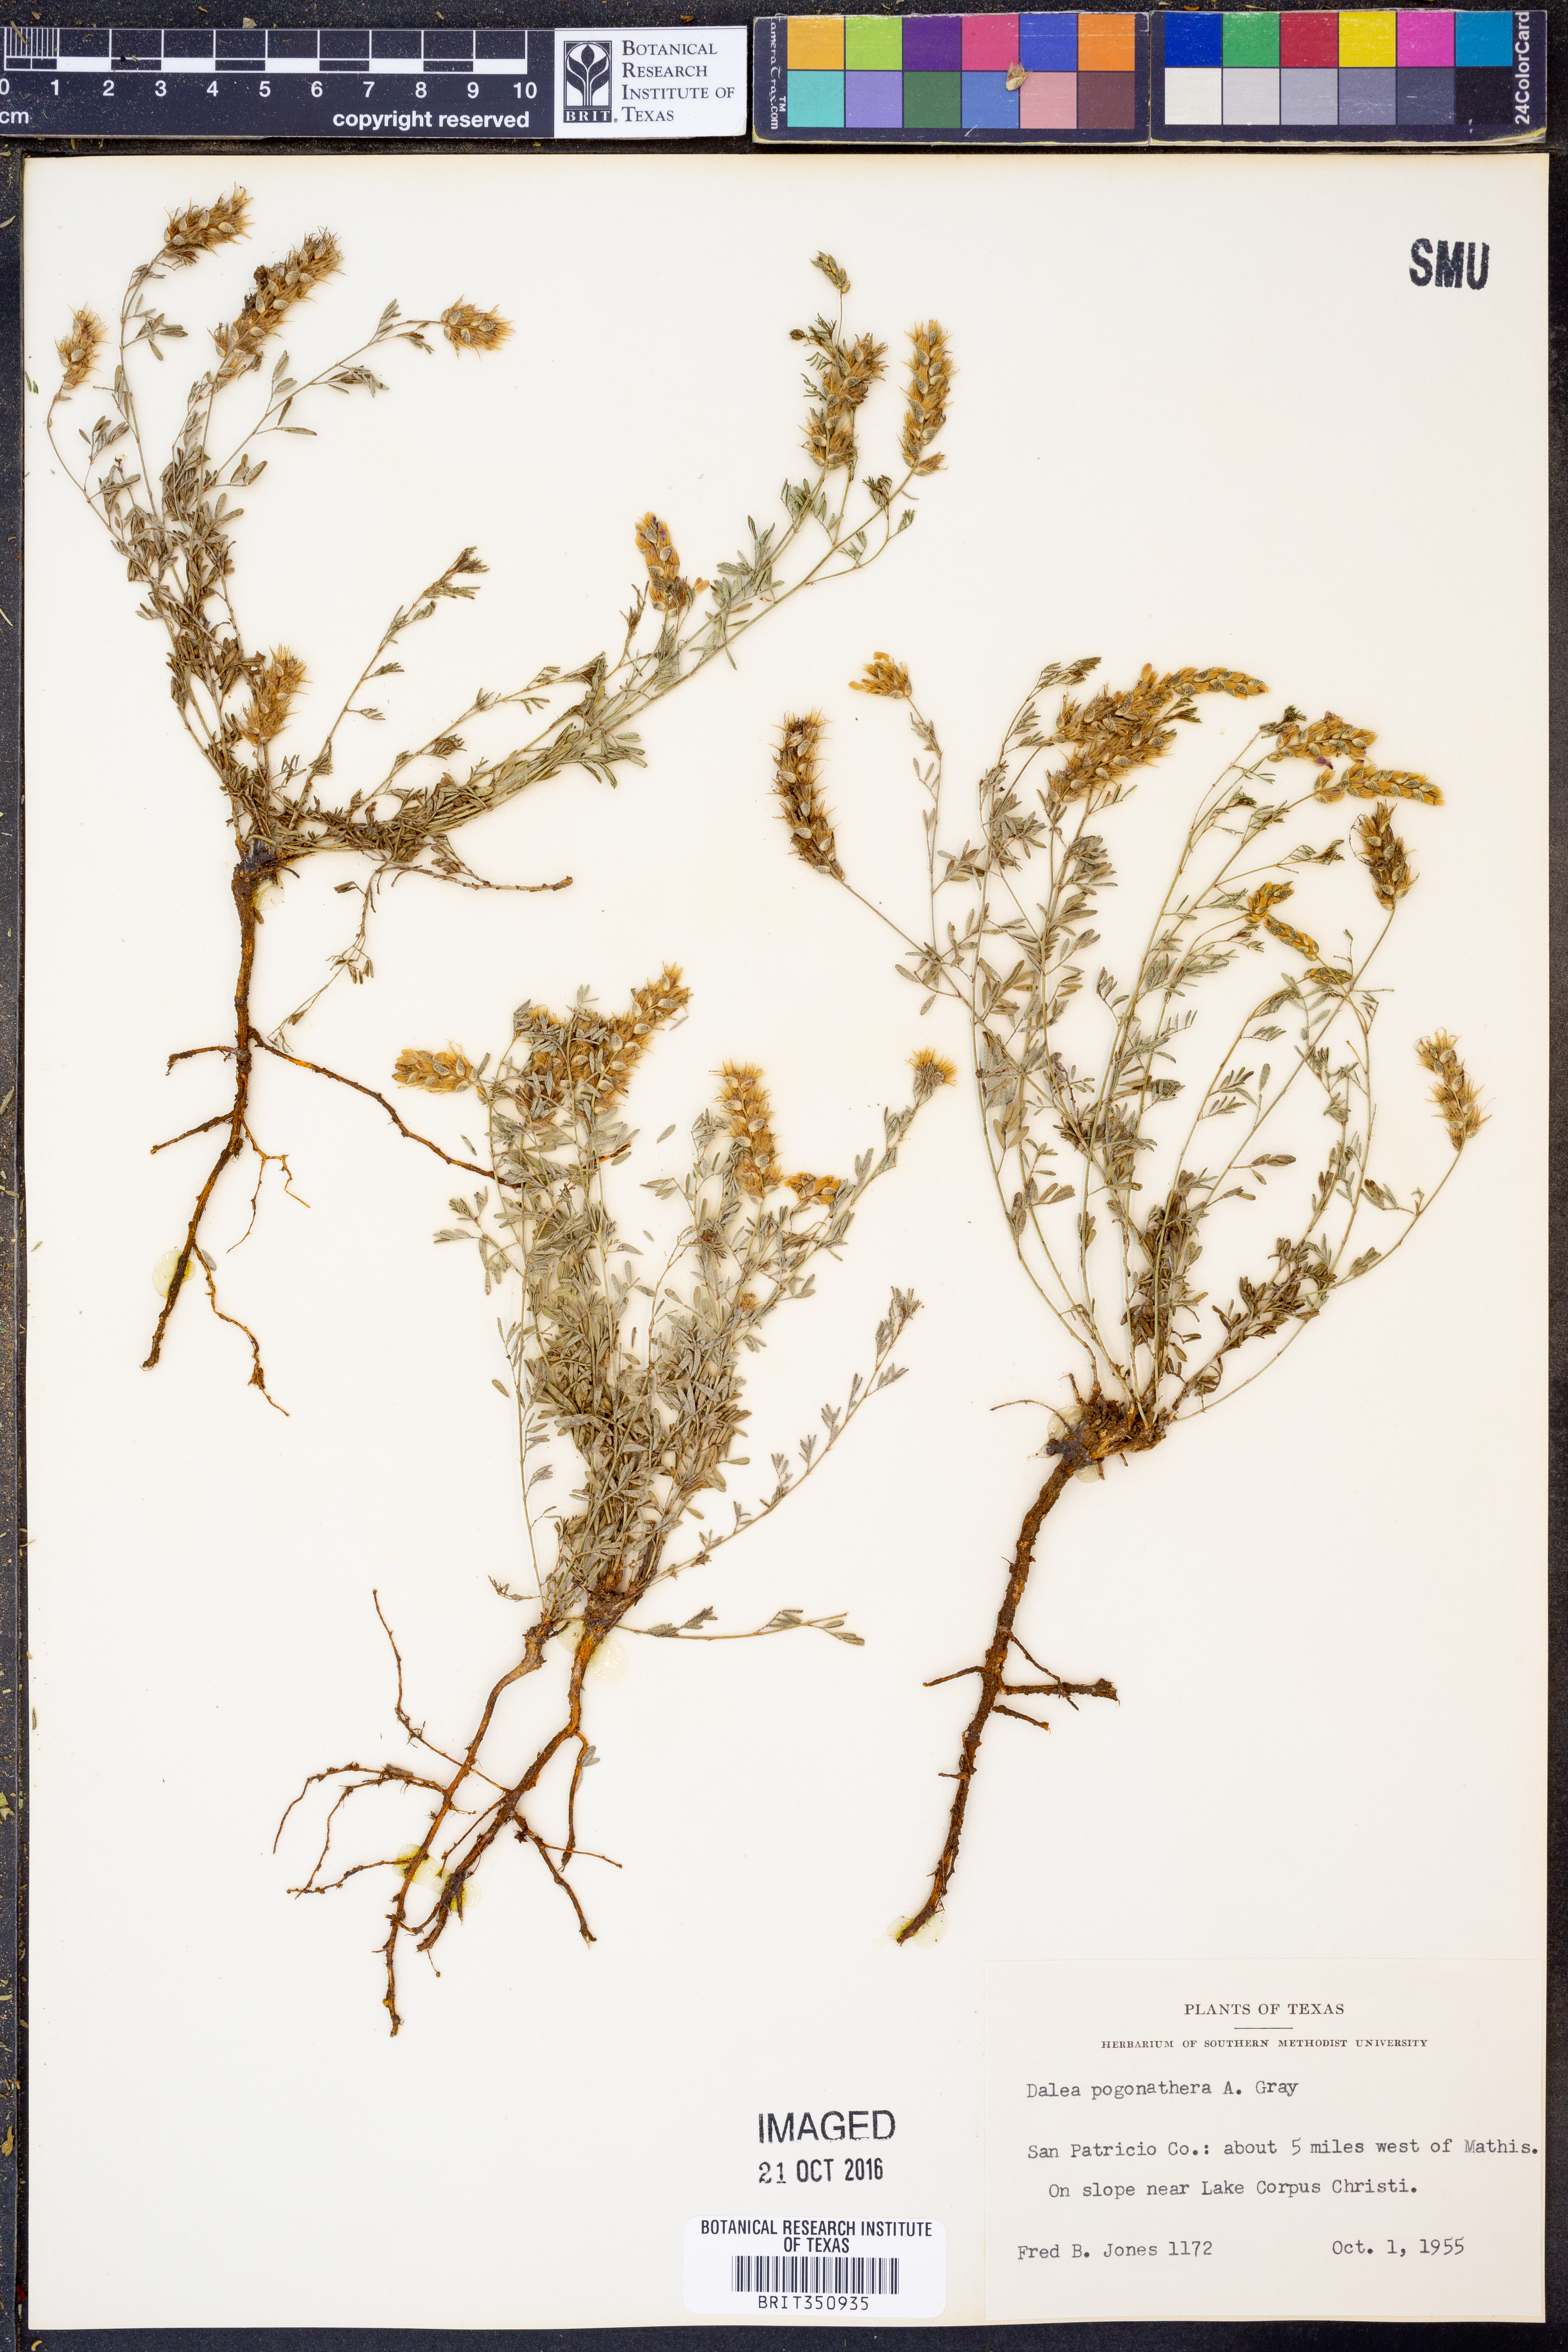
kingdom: Plantae
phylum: Tracheophyta
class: Magnoliopsida
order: Fabales
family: Fabaceae
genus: Dalea
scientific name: Dalea pogonathera
